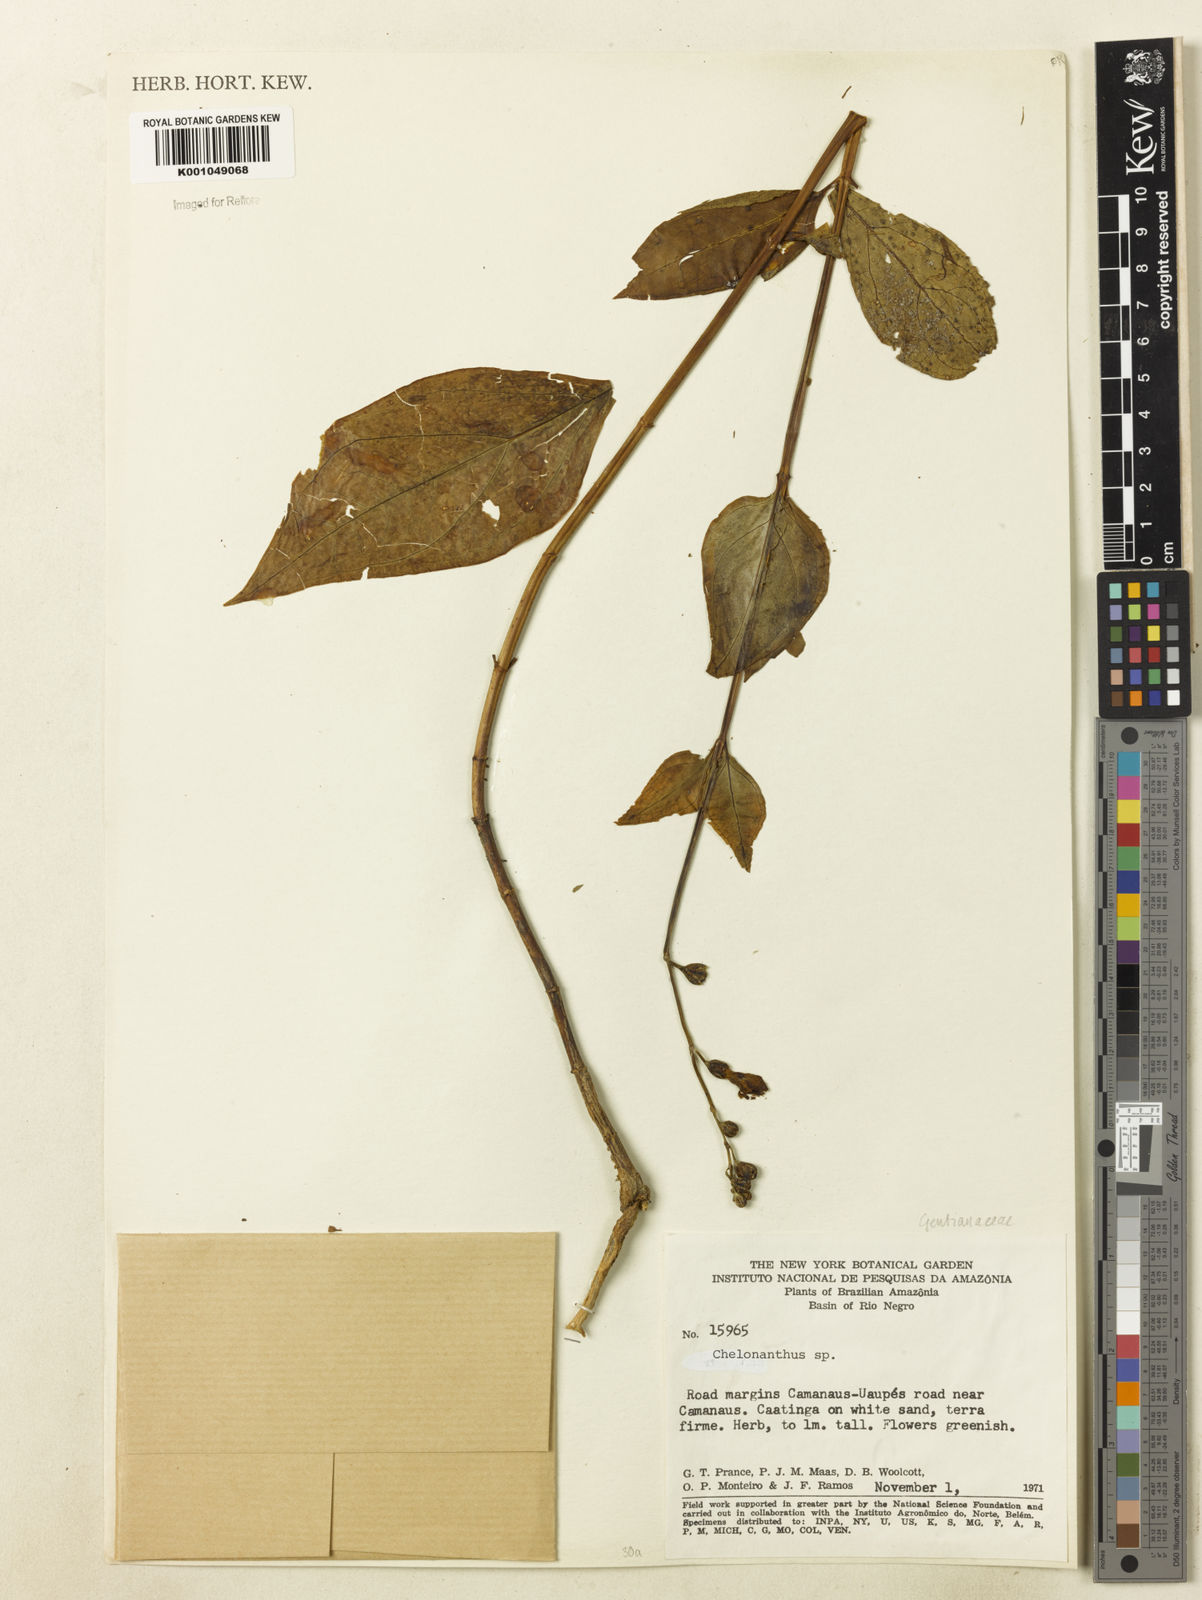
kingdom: Plantae
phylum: Tracheophyta
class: Magnoliopsida
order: Gentianales
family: Gentianaceae
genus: Chelonanthus
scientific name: Chelonanthus
